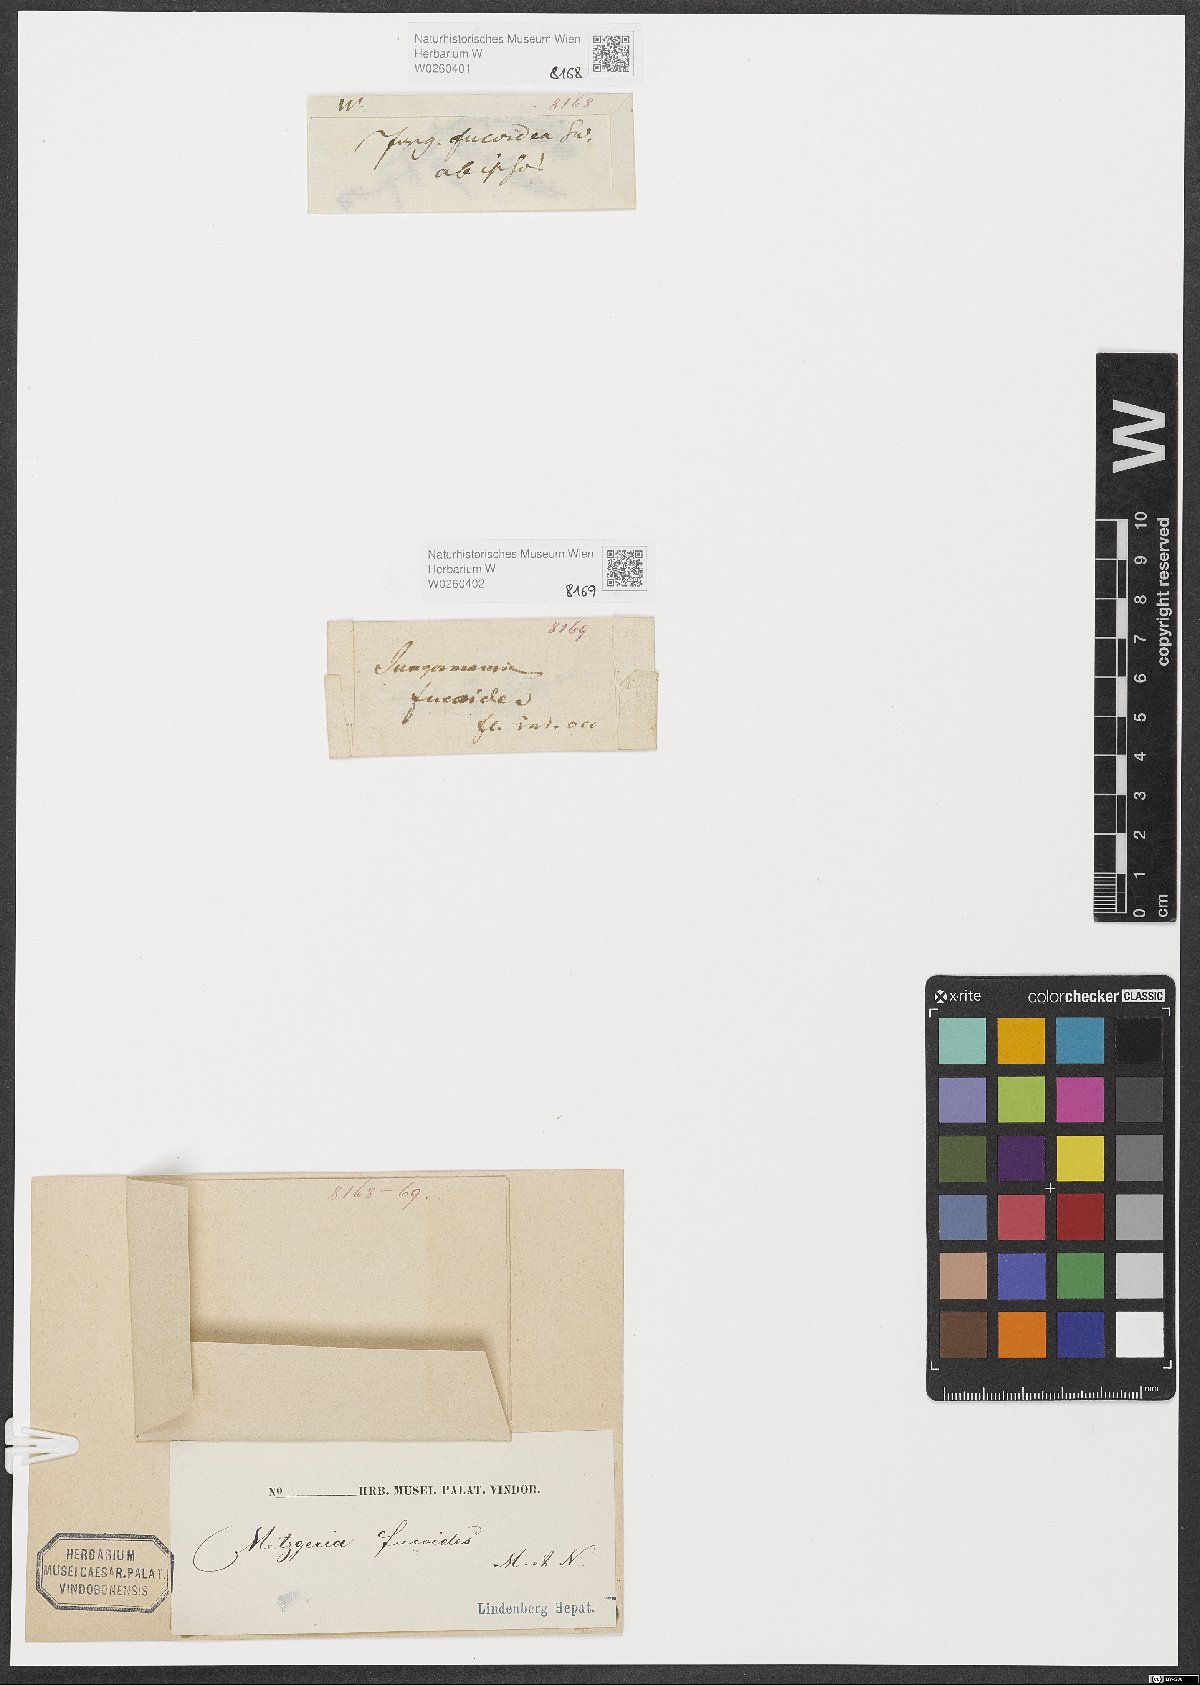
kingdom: Plantae
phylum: Marchantiophyta
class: Jungermanniopsida
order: Metzgeriales
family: Aneuraceae
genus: Riccardia
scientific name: Riccardia fucoidea
